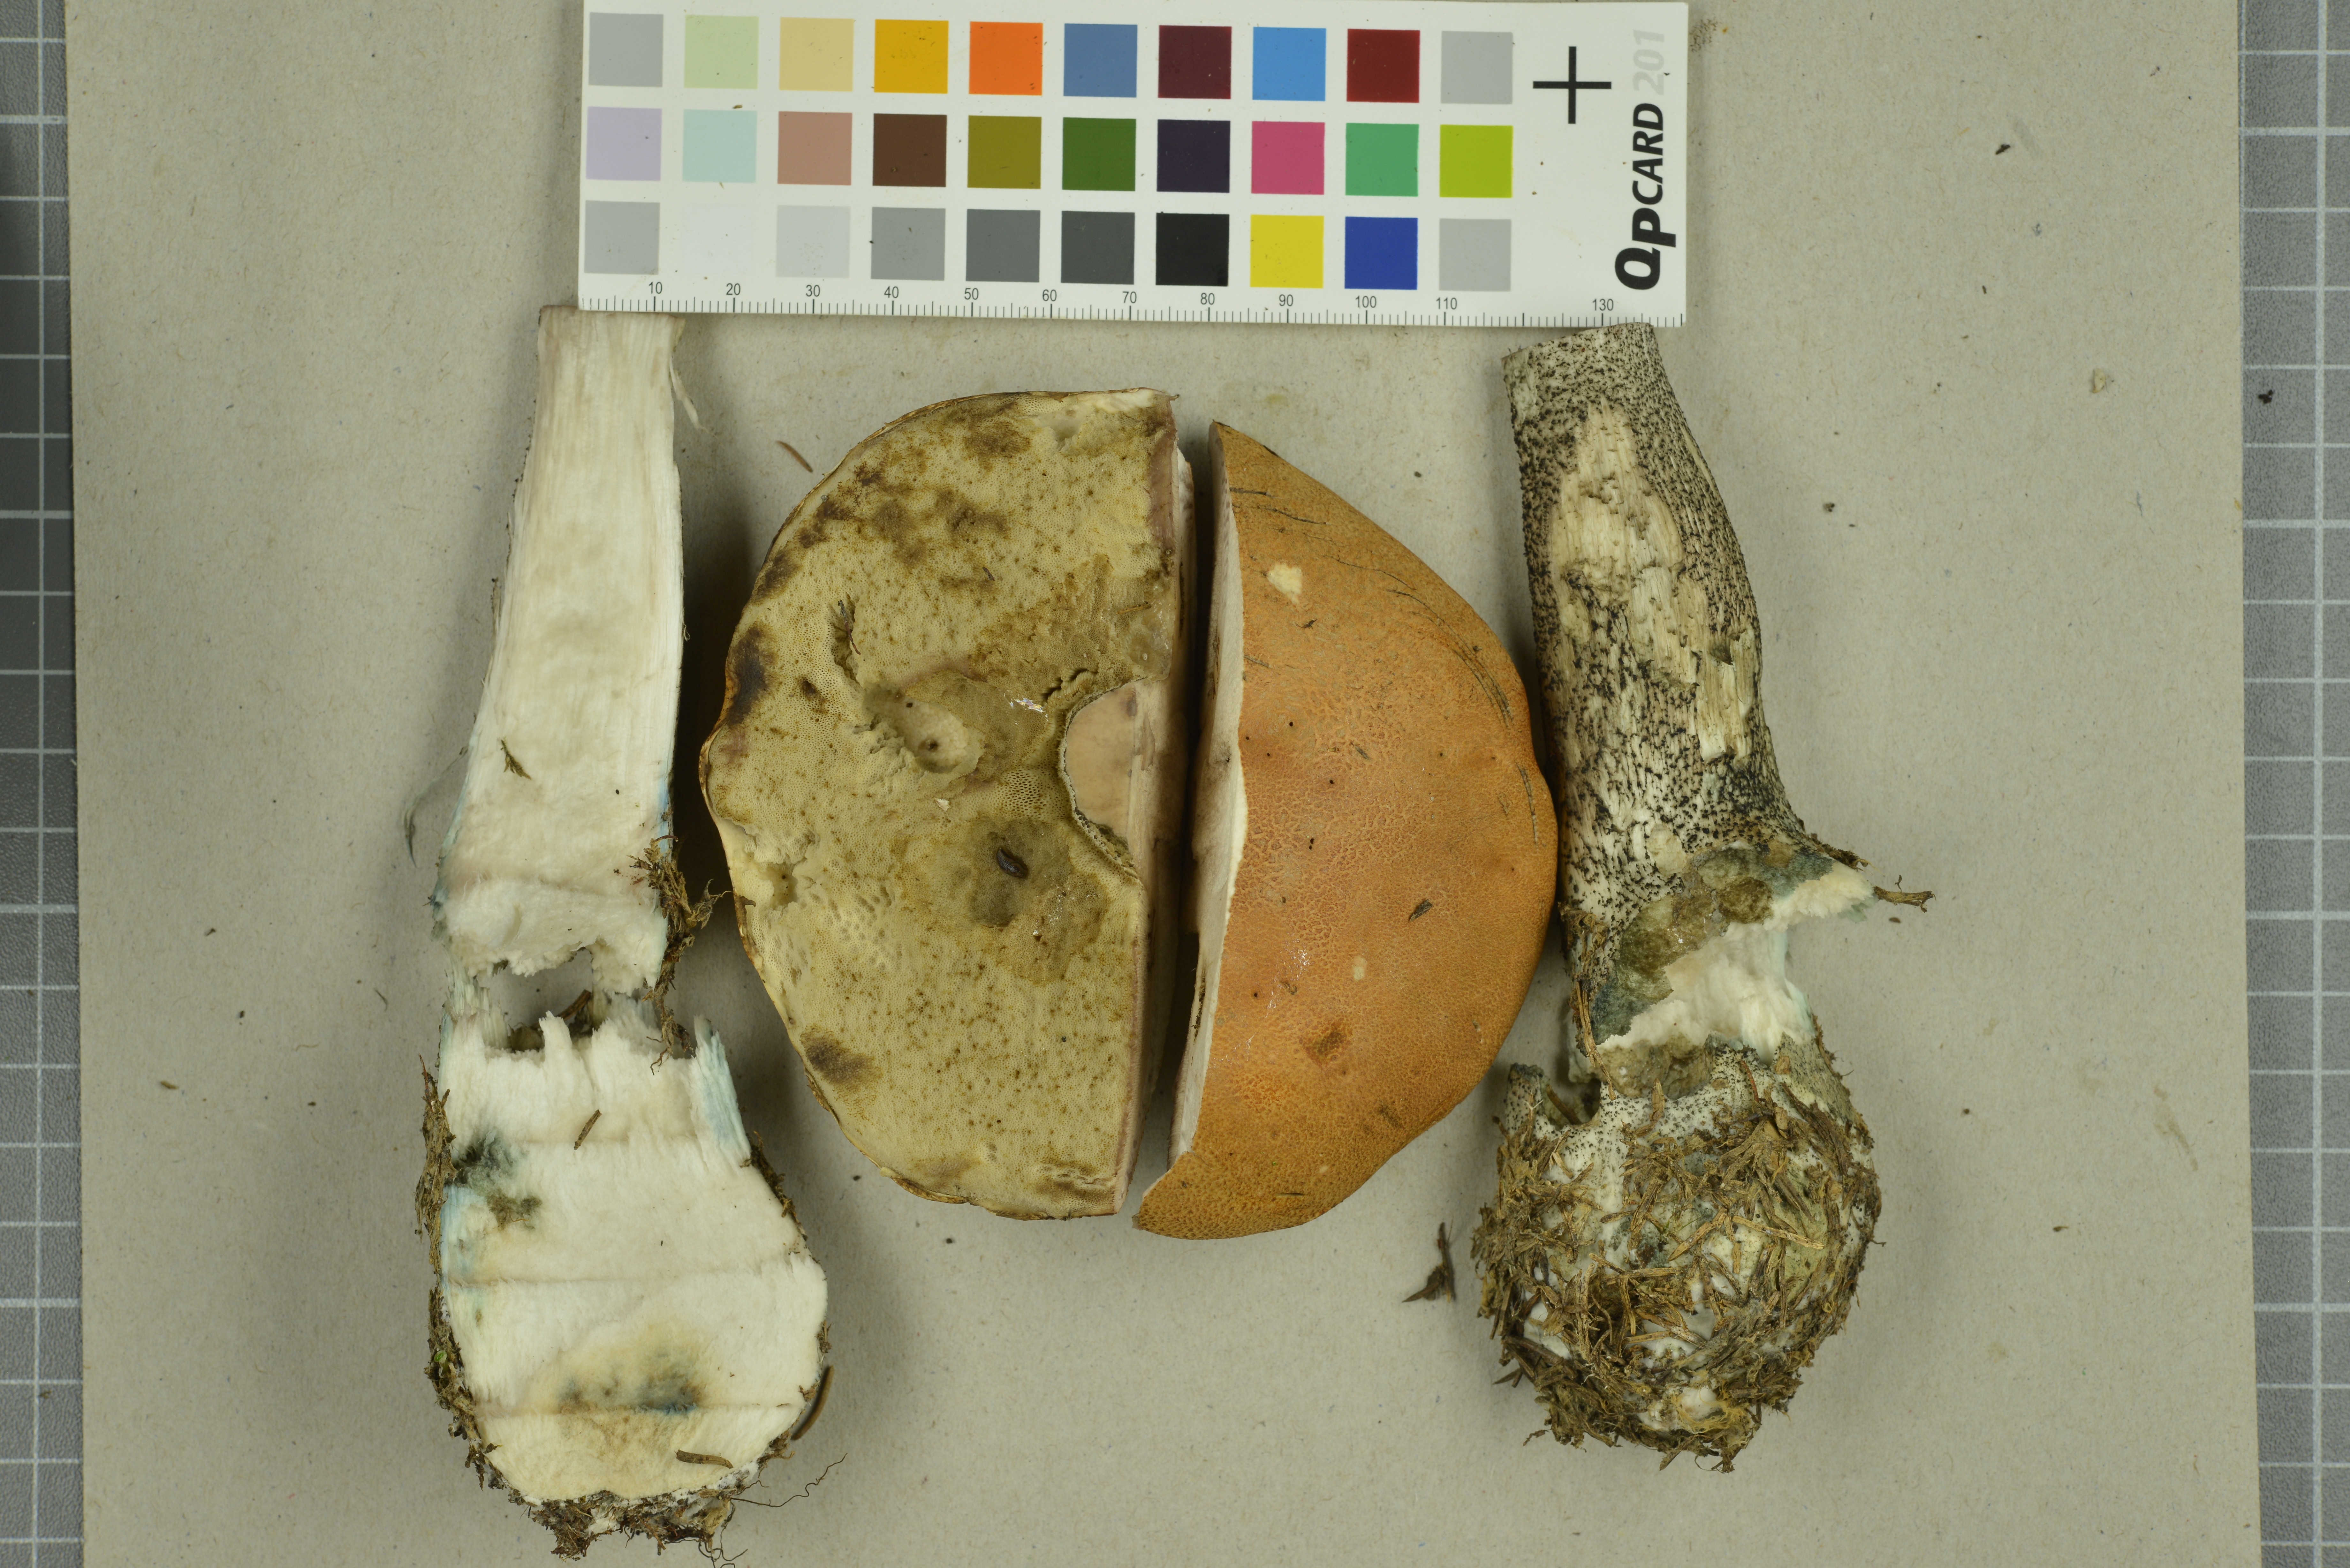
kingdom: Fungi
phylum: Basidiomycota
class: Agaricomycetes
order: Boletales
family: Boletaceae
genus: Leccinum
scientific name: Leccinum versipelle
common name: Orange birch bolete
